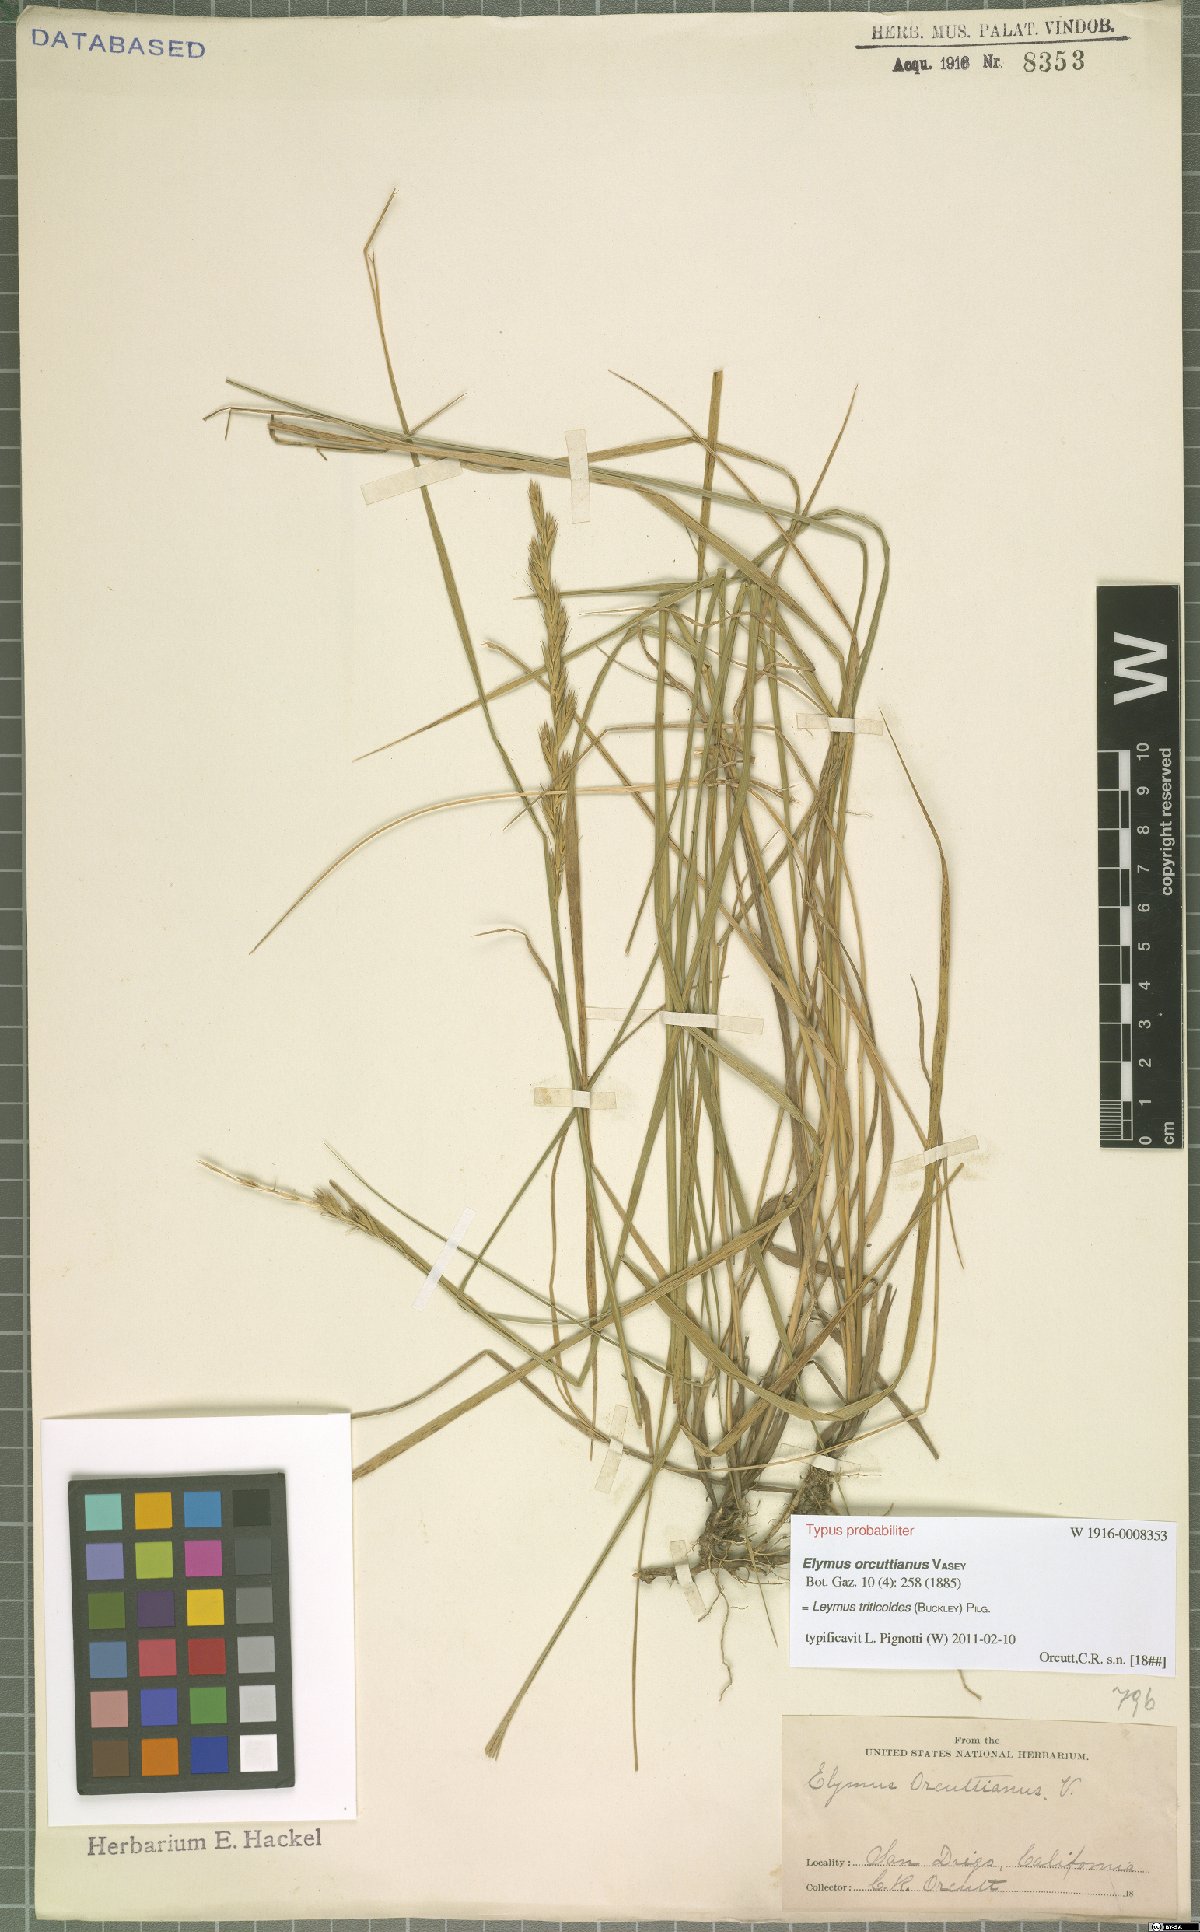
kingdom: Plantae
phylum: Tracheophyta
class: Liliopsida
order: Poales
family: Poaceae
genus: Leymus
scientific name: Leymus triticoides
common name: Beardless wild rye
